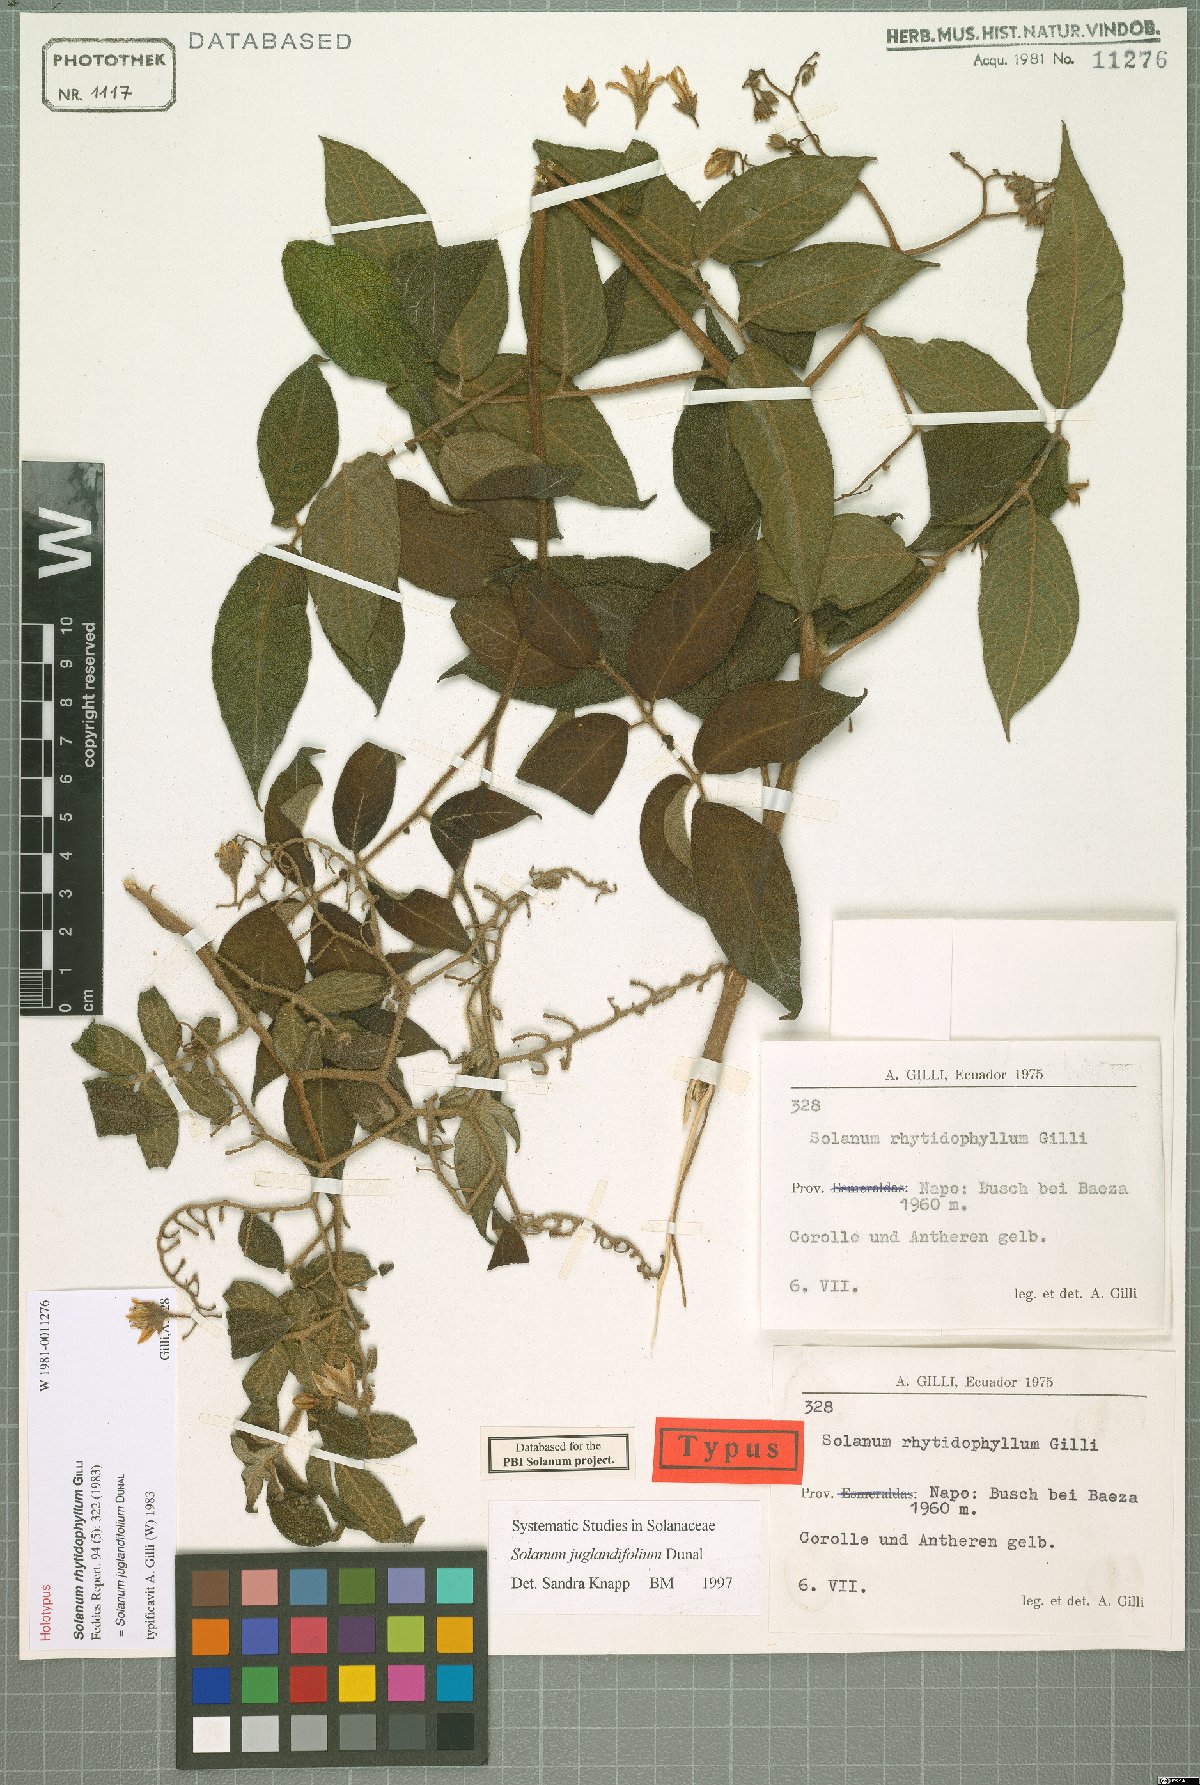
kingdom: Plantae
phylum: Tracheophyta
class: Magnoliopsida
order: Solanales
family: Solanaceae
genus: Solanum
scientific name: Solanum juglandifolium
